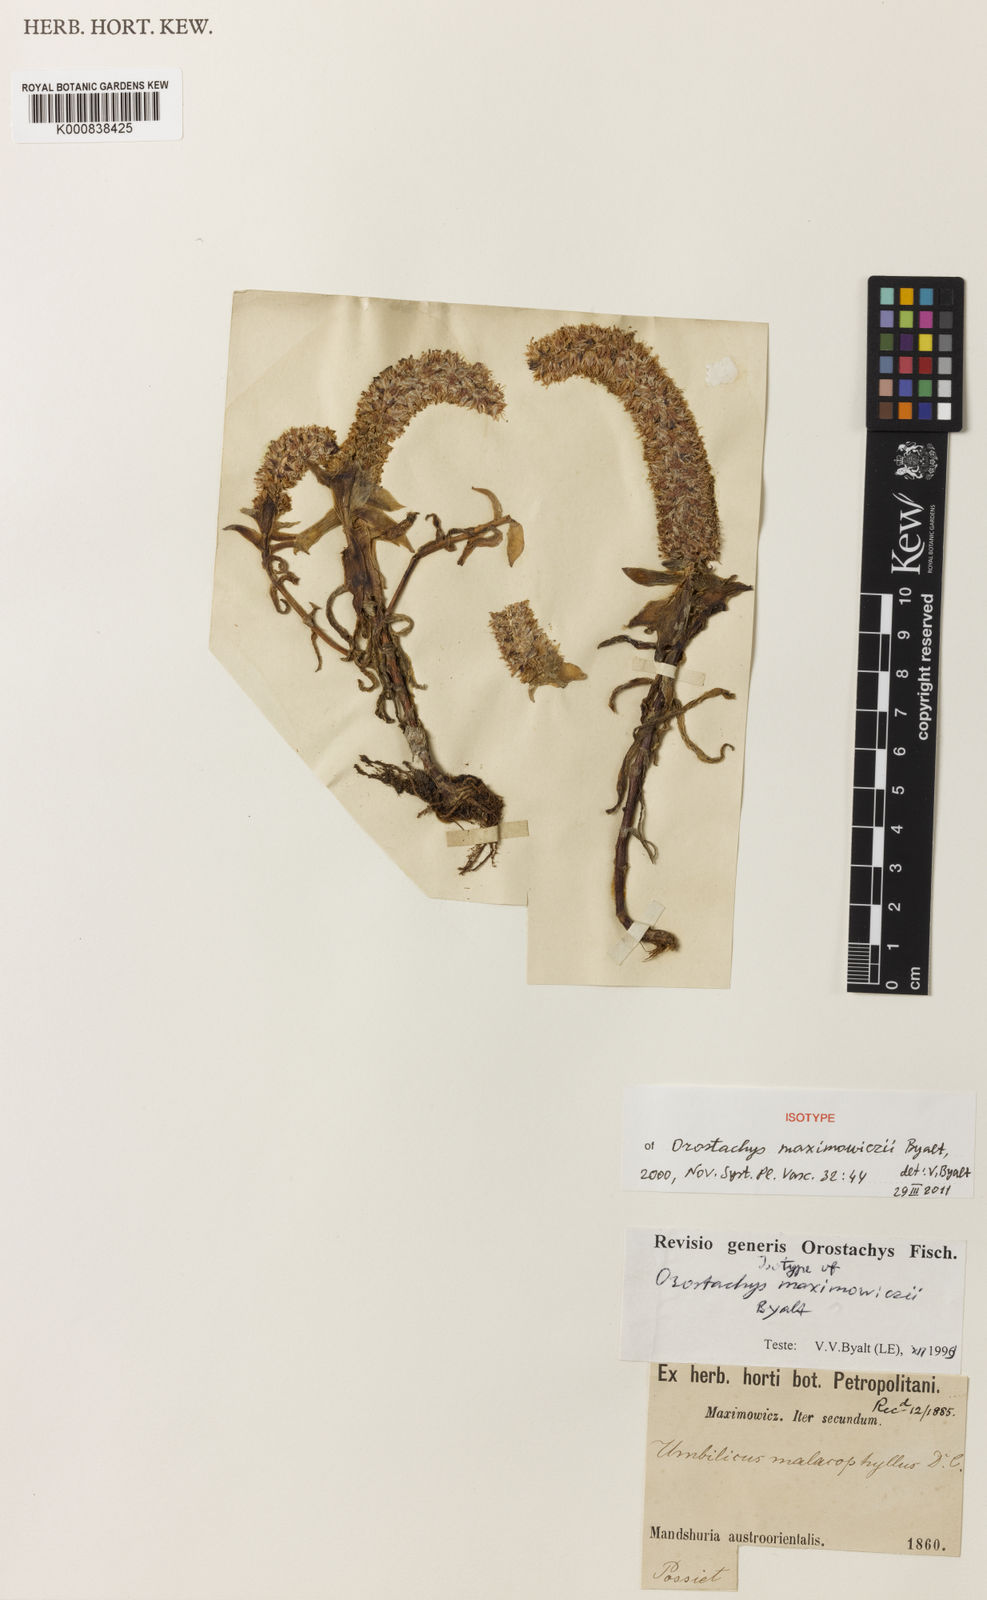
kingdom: Plantae
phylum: Tracheophyta
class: Magnoliopsida
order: Saxifragales
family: Crassulaceae
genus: Orostachys
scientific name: Orostachys maximowiczii
